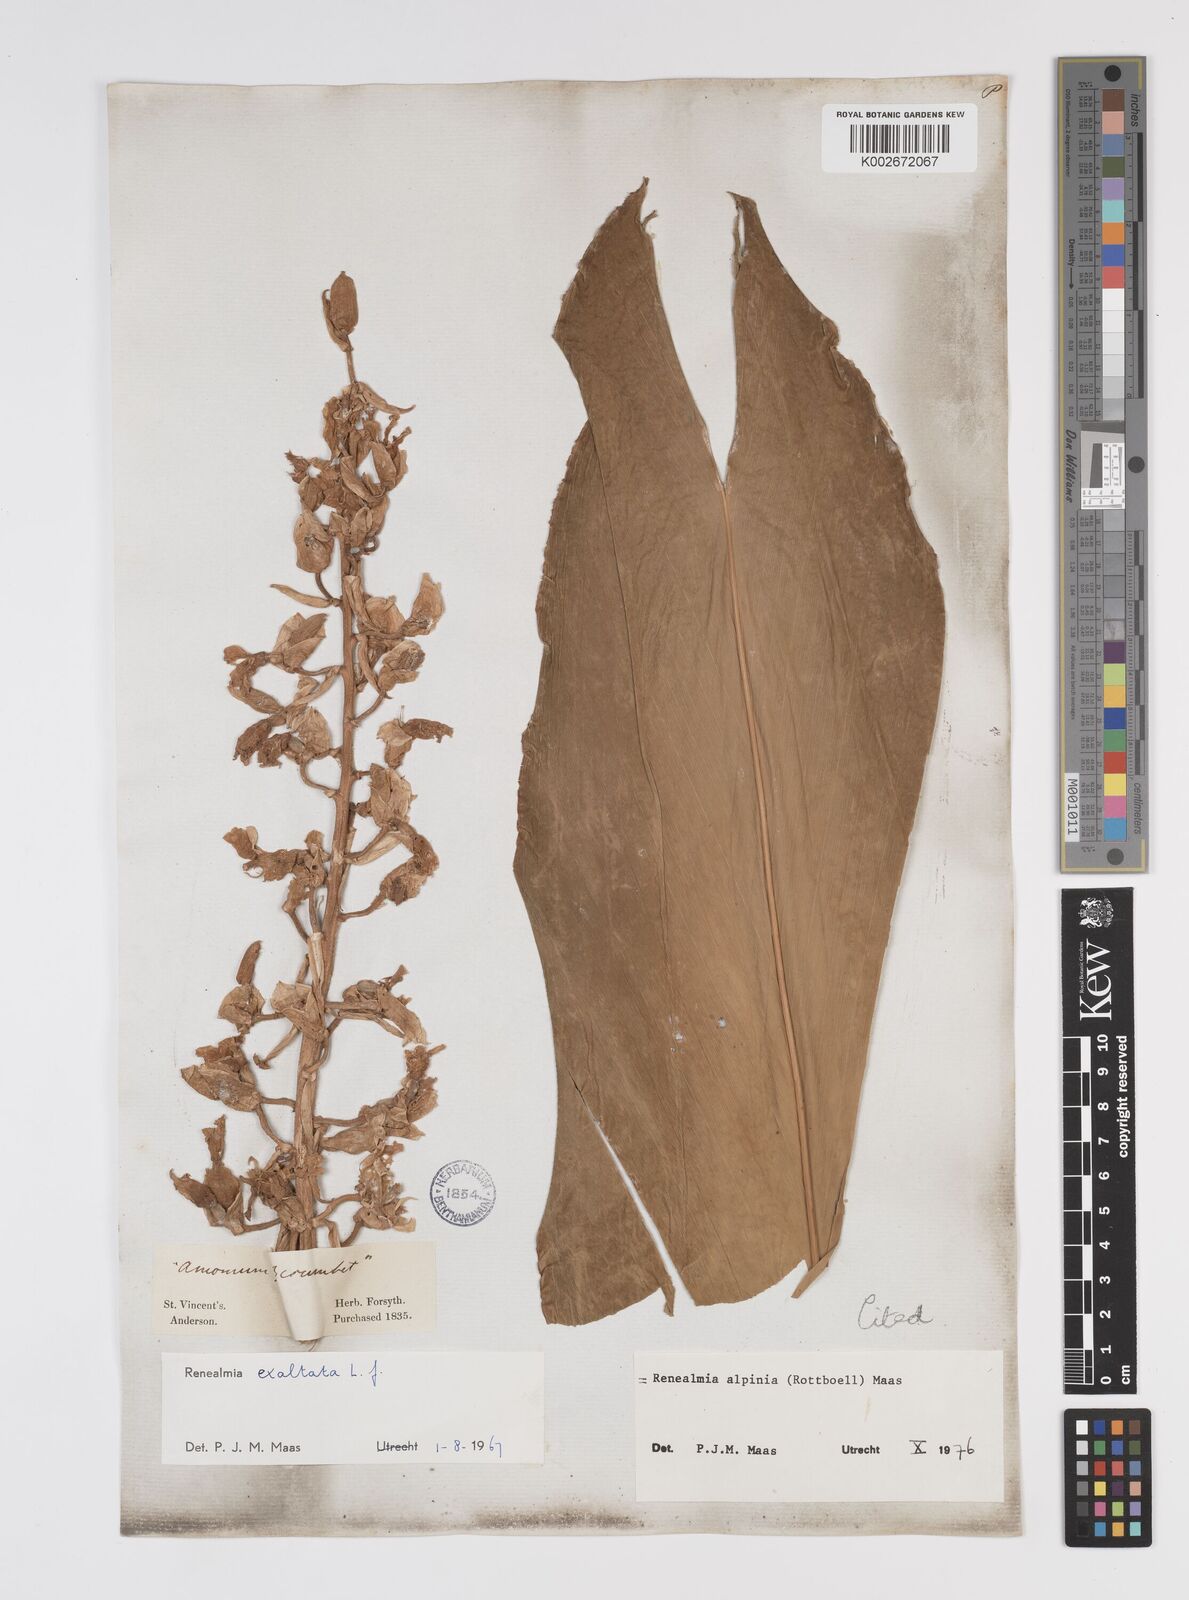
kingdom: Plantae
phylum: Tracheophyta
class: Liliopsida
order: Zingiberales
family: Zingiberaceae
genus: Renealmia
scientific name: Renealmia alpinia
